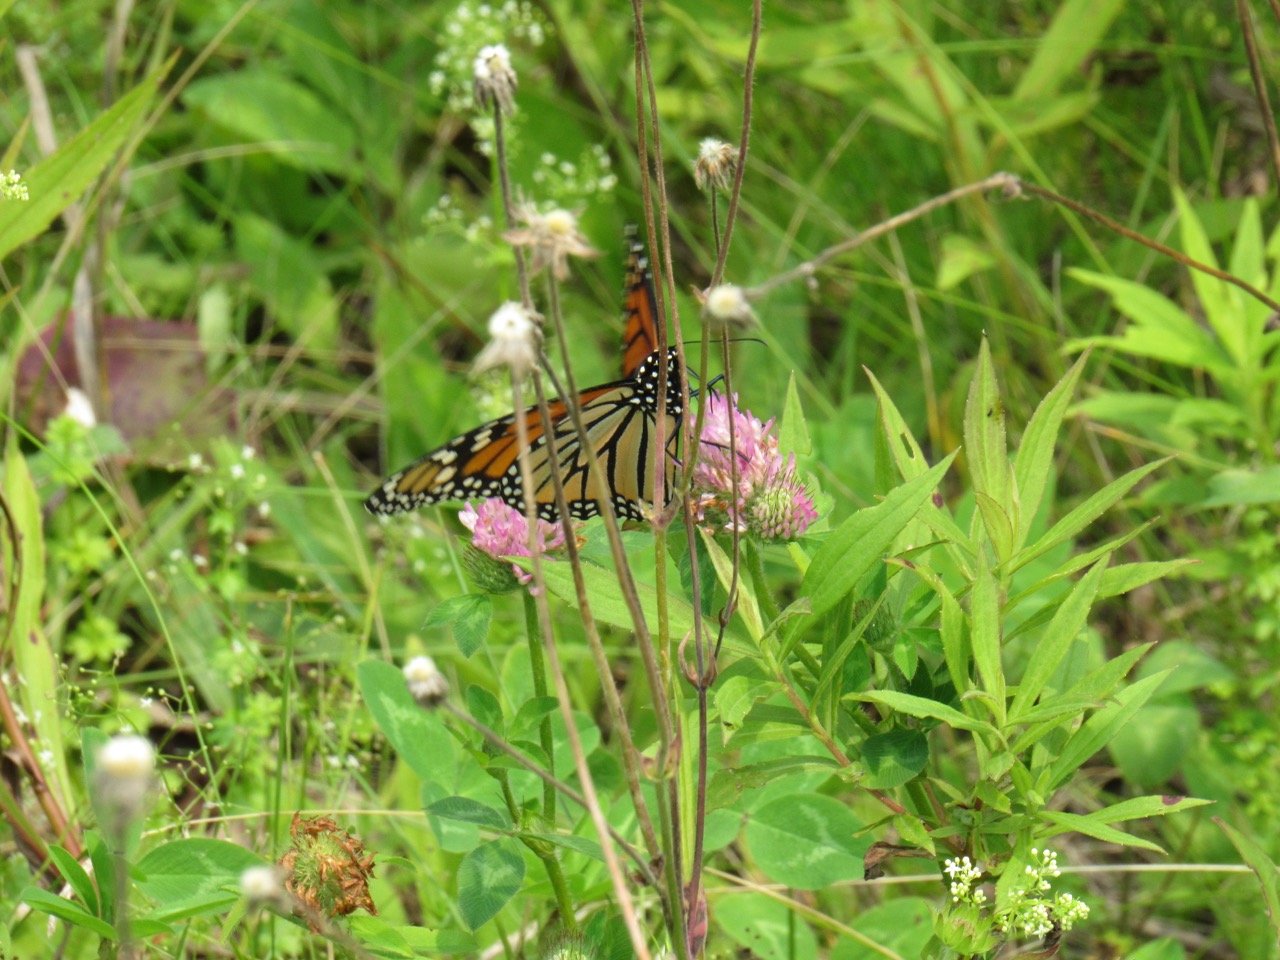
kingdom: Animalia
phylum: Arthropoda
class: Insecta
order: Lepidoptera
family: Nymphalidae
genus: Danaus
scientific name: Danaus plexippus
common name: Monarch
